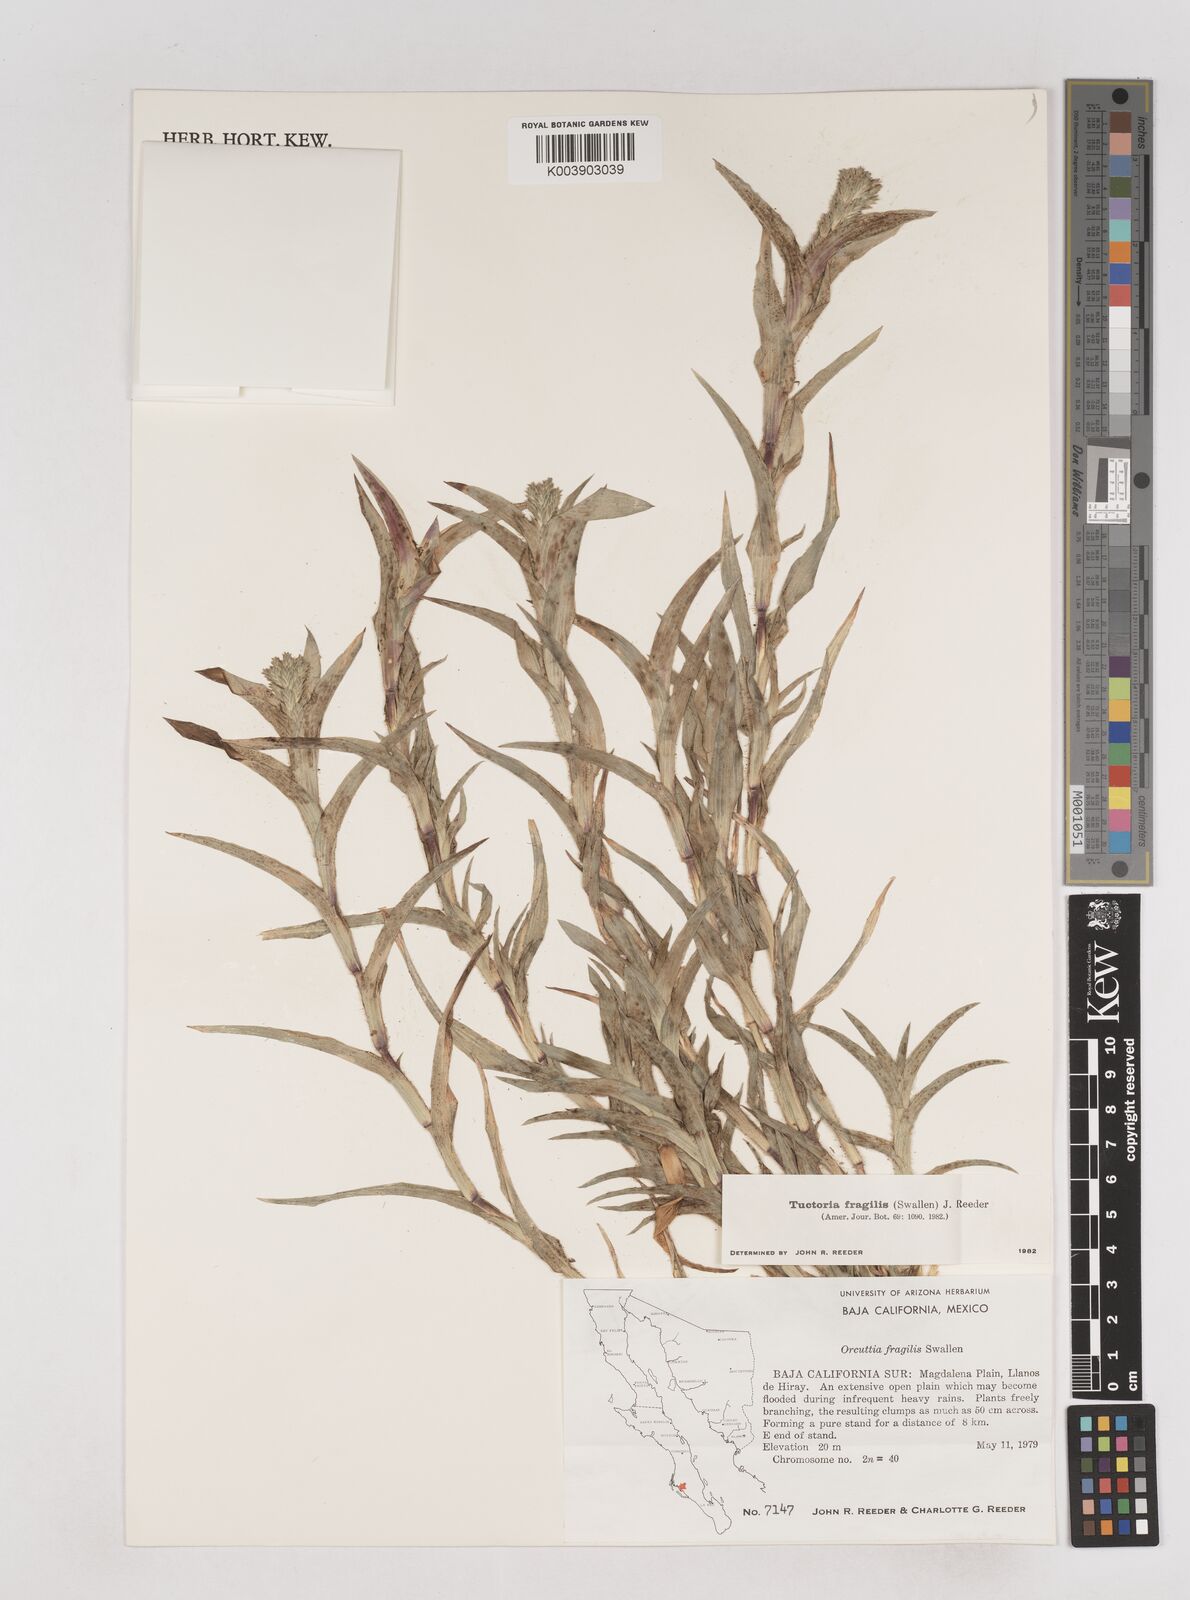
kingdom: Plantae
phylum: Tracheophyta
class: Liliopsida
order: Poales
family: Poaceae
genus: Tuctoria
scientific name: Tuctoria fragilis
